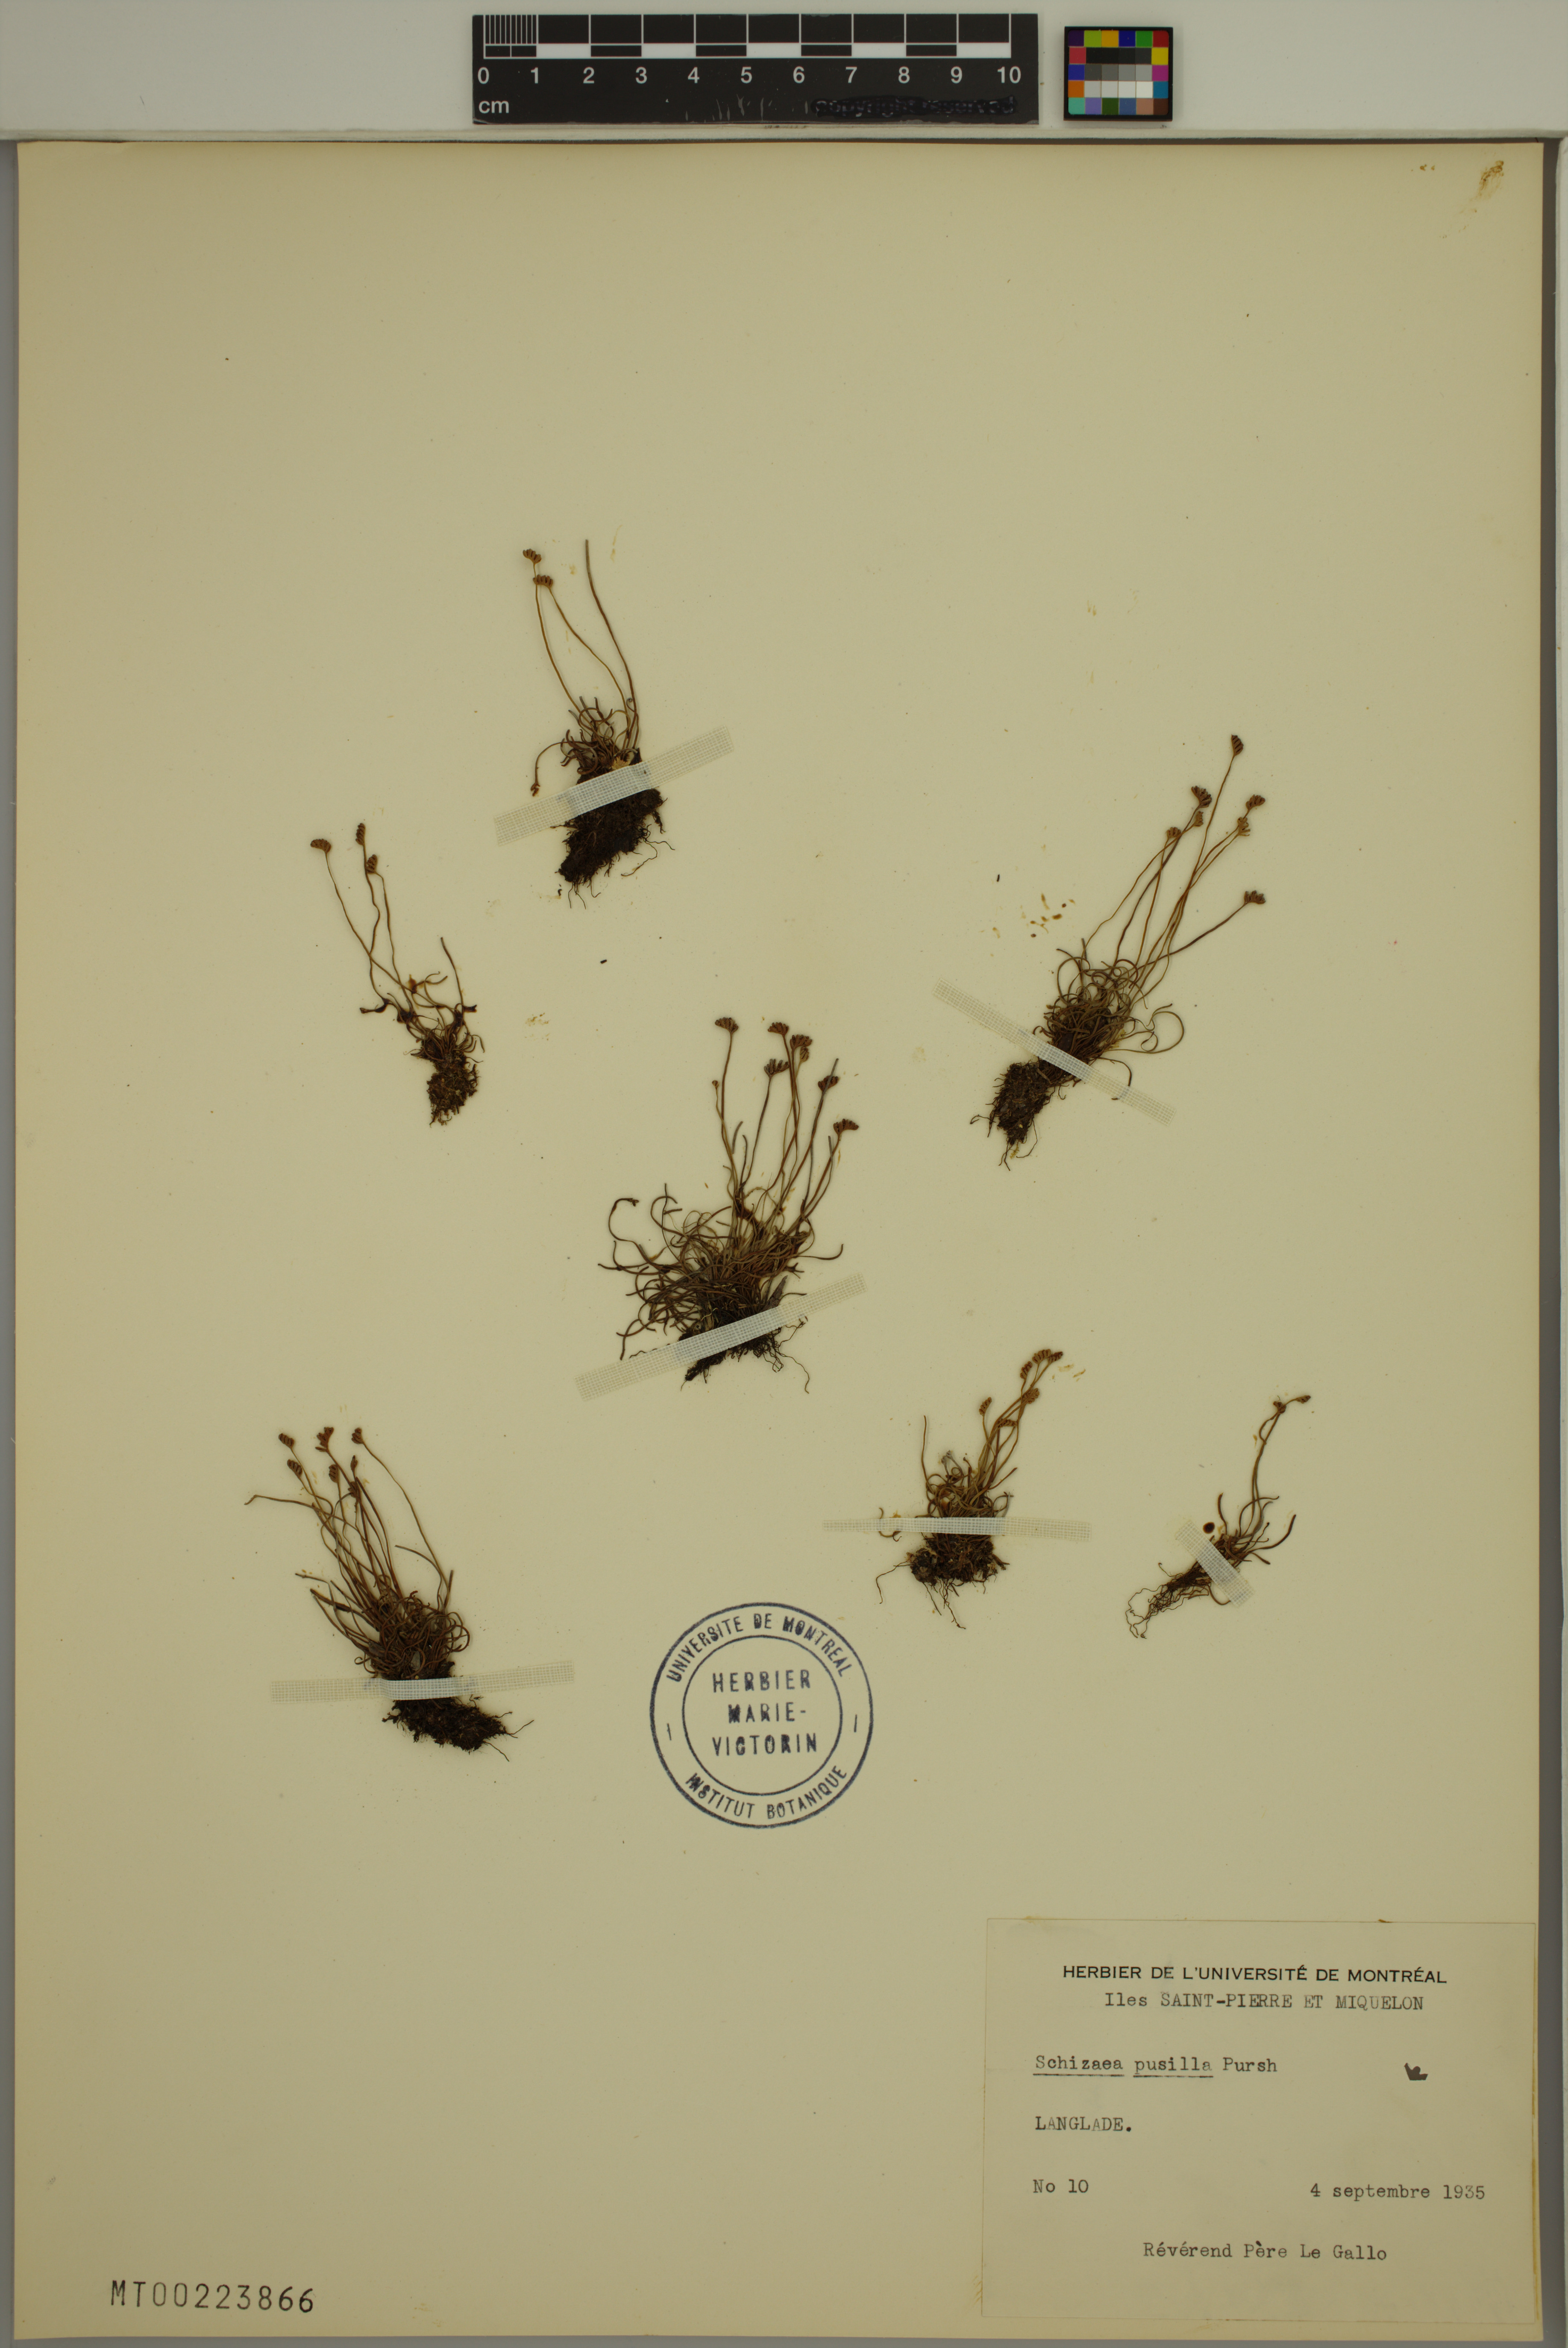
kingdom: Plantae
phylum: Tracheophyta
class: Polypodiopsida
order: Schizaeales
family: Schizaeaceae
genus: Schizaea
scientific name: Schizaea pusilla
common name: Curly-grass fern
